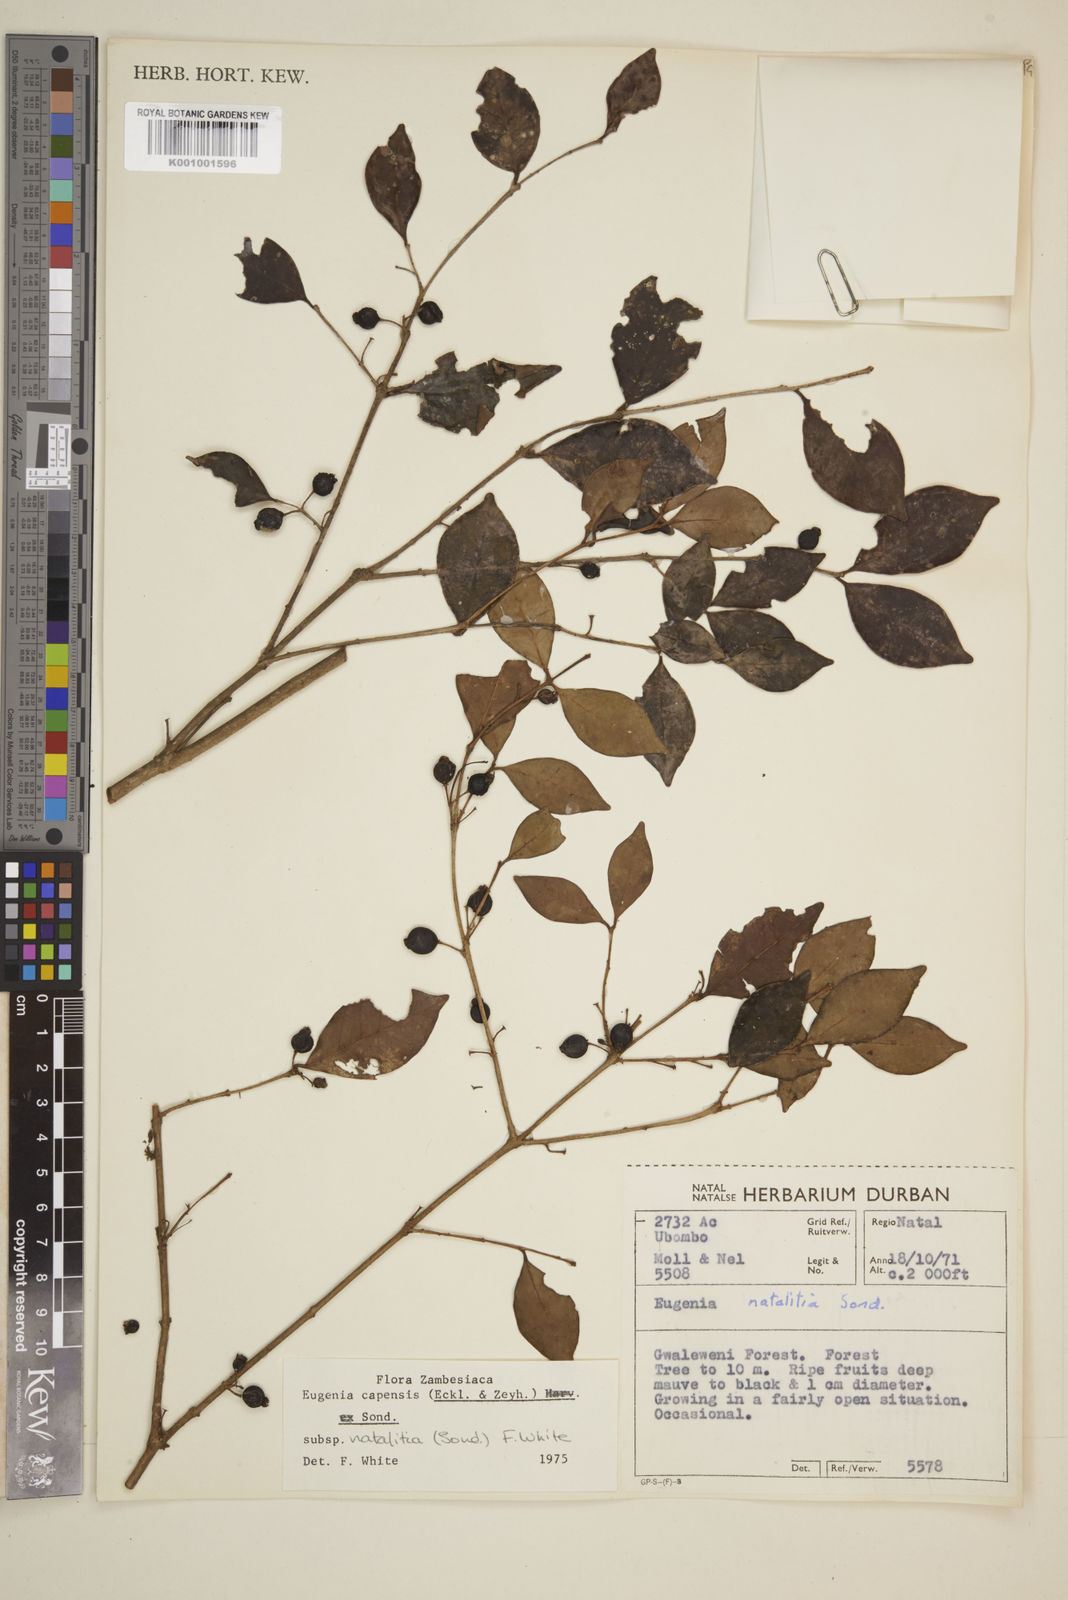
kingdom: Plantae
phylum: Tracheophyta
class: Magnoliopsida
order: Myrtales
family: Myrtaceae
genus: Eugenia
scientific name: Eugenia natalitia
